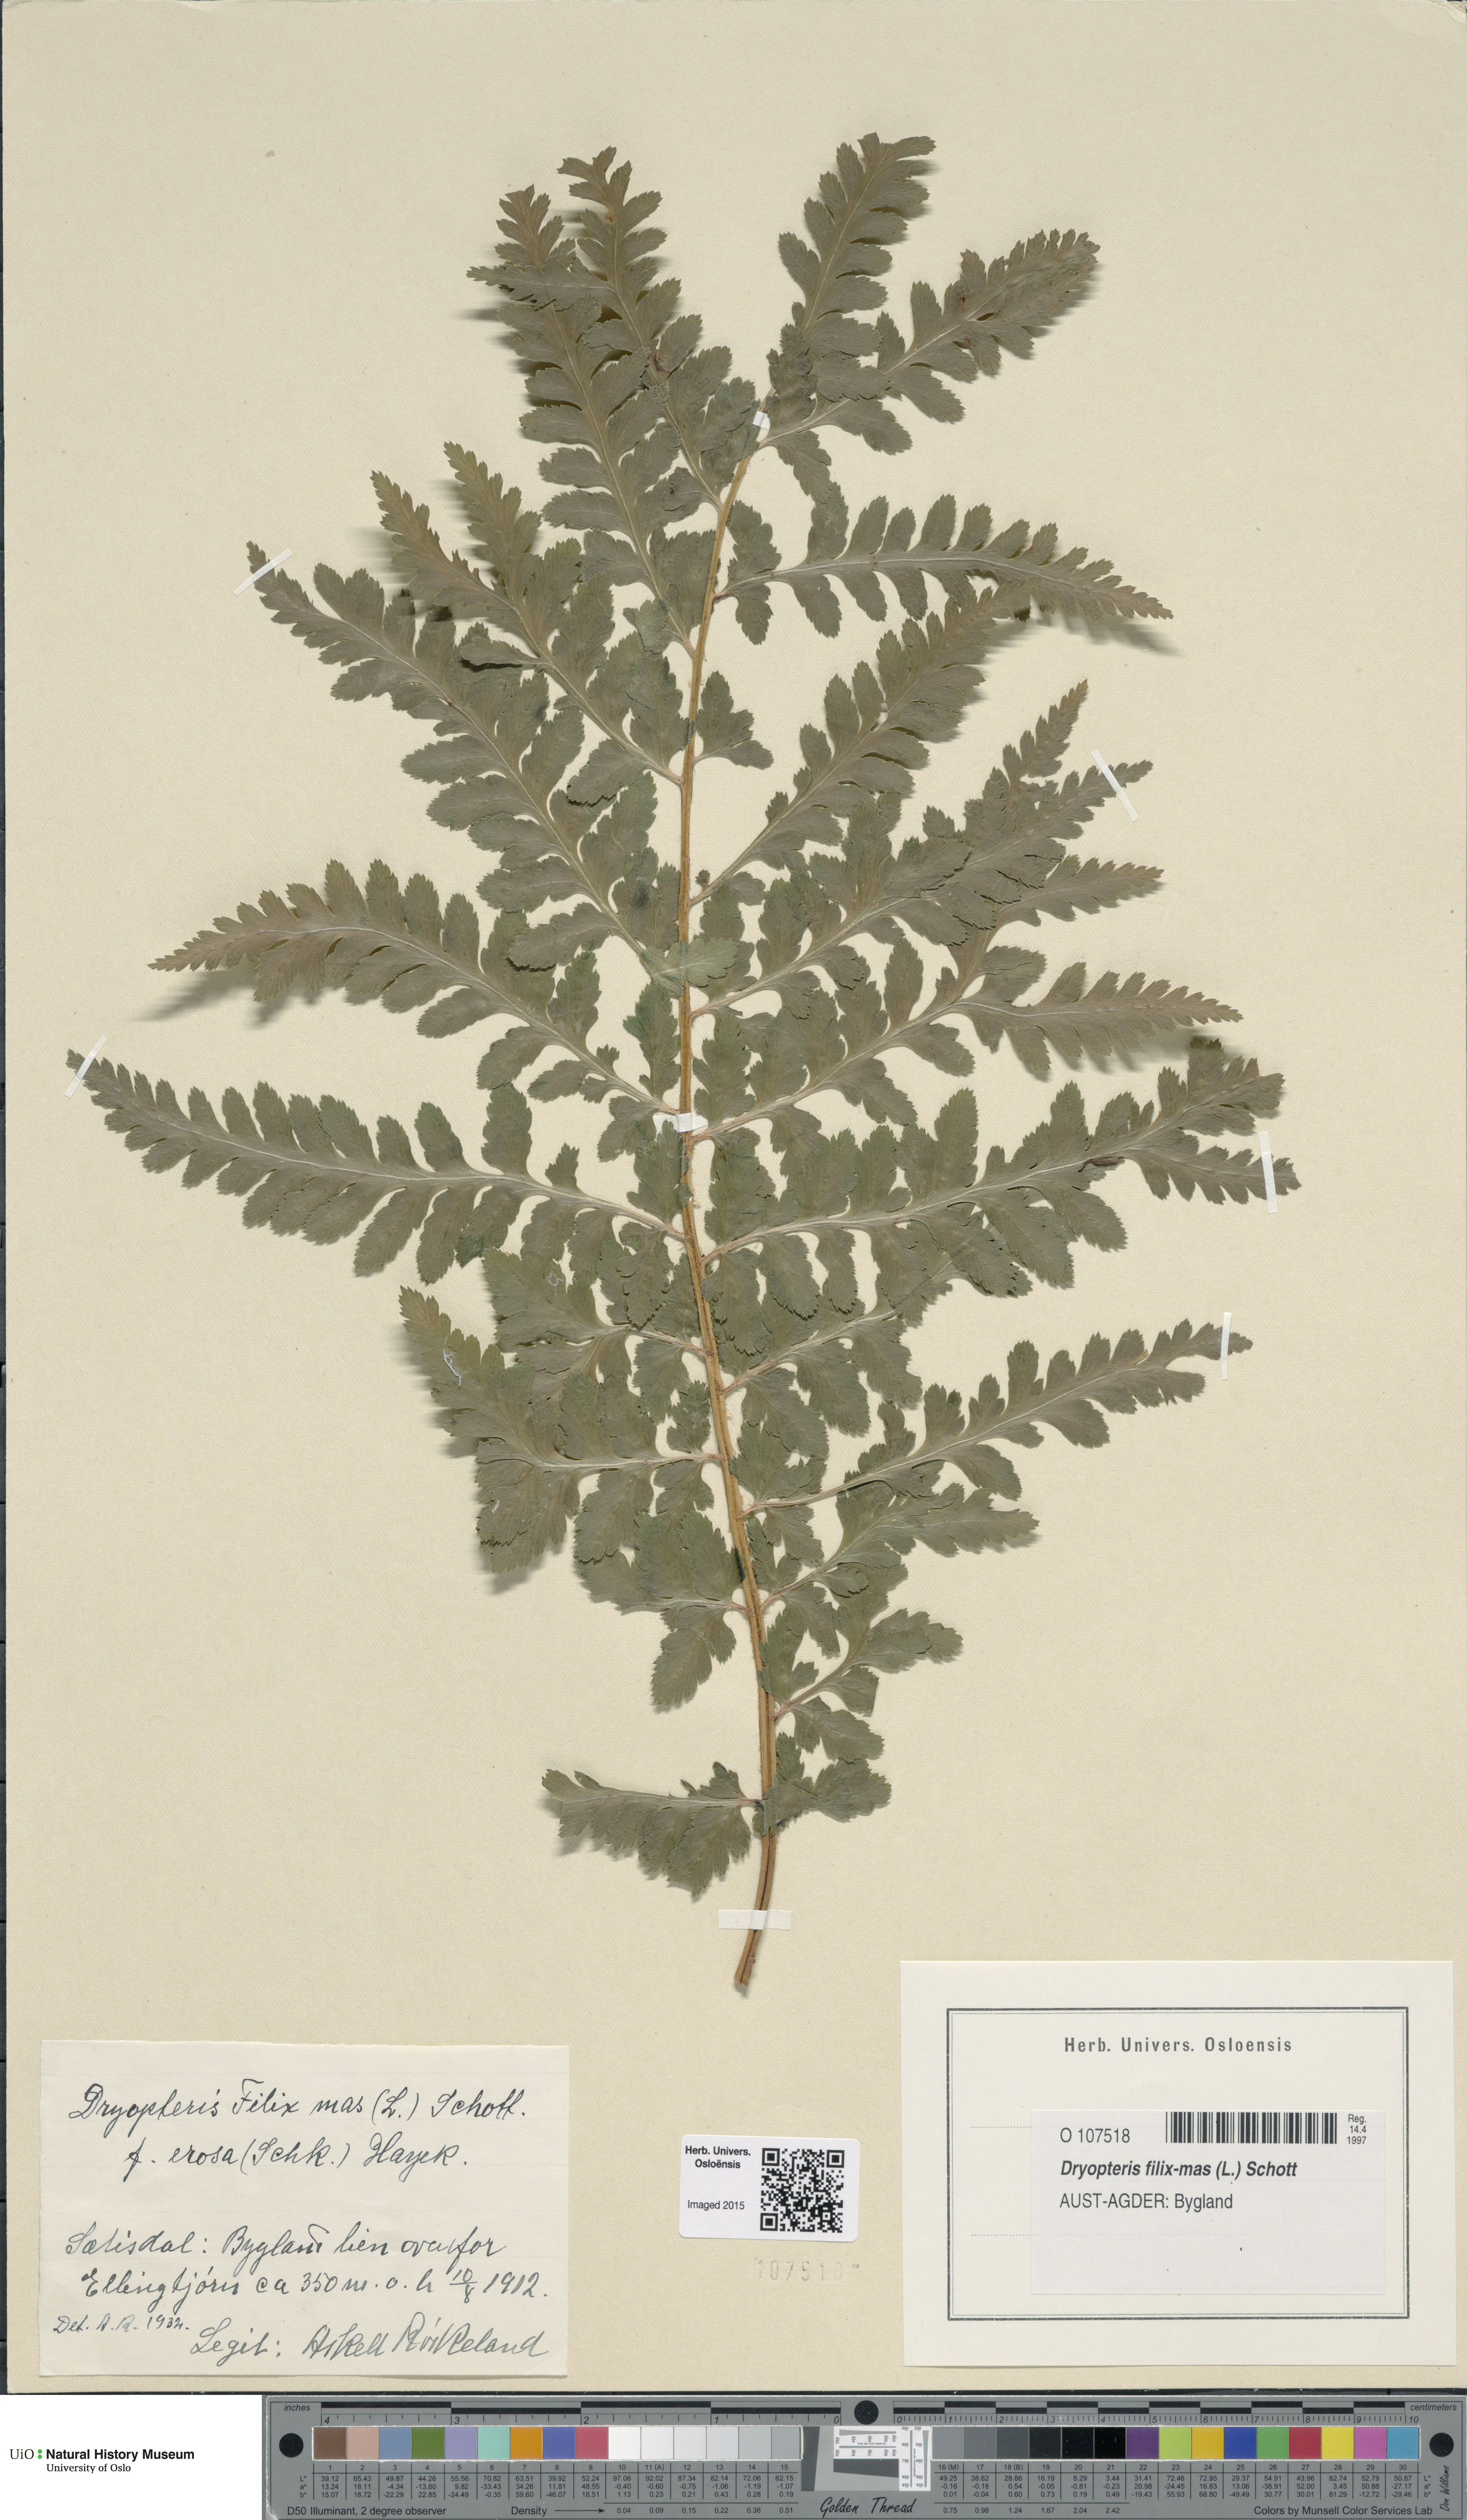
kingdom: Plantae
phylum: Tracheophyta
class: Polypodiopsida
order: Polypodiales
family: Dryopteridaceae
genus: Dryopteris
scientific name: Dryopteris filix-mas
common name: Male fern
